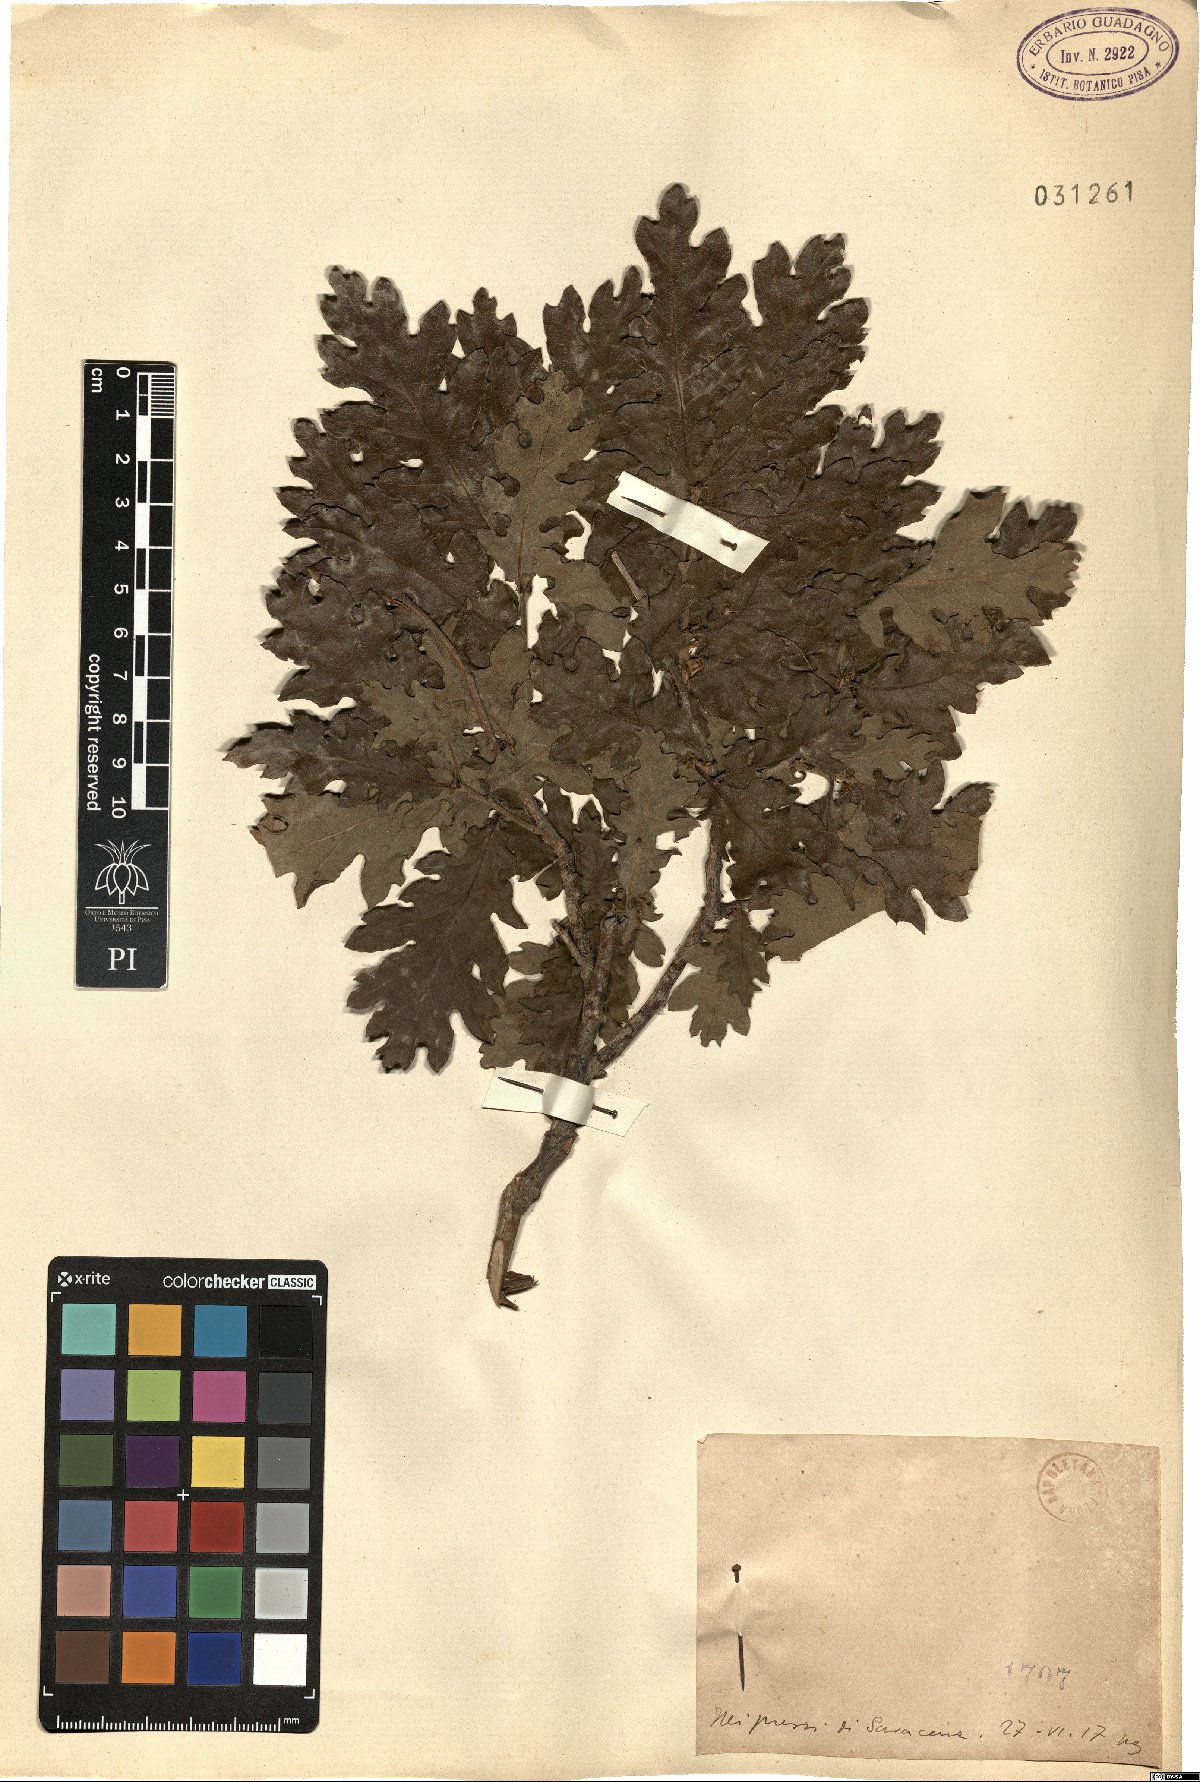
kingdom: Plantae
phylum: Tracheophyta
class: Magnoliopsida
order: Fagales
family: Fagaceae
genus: Quercus
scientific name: Quercus
